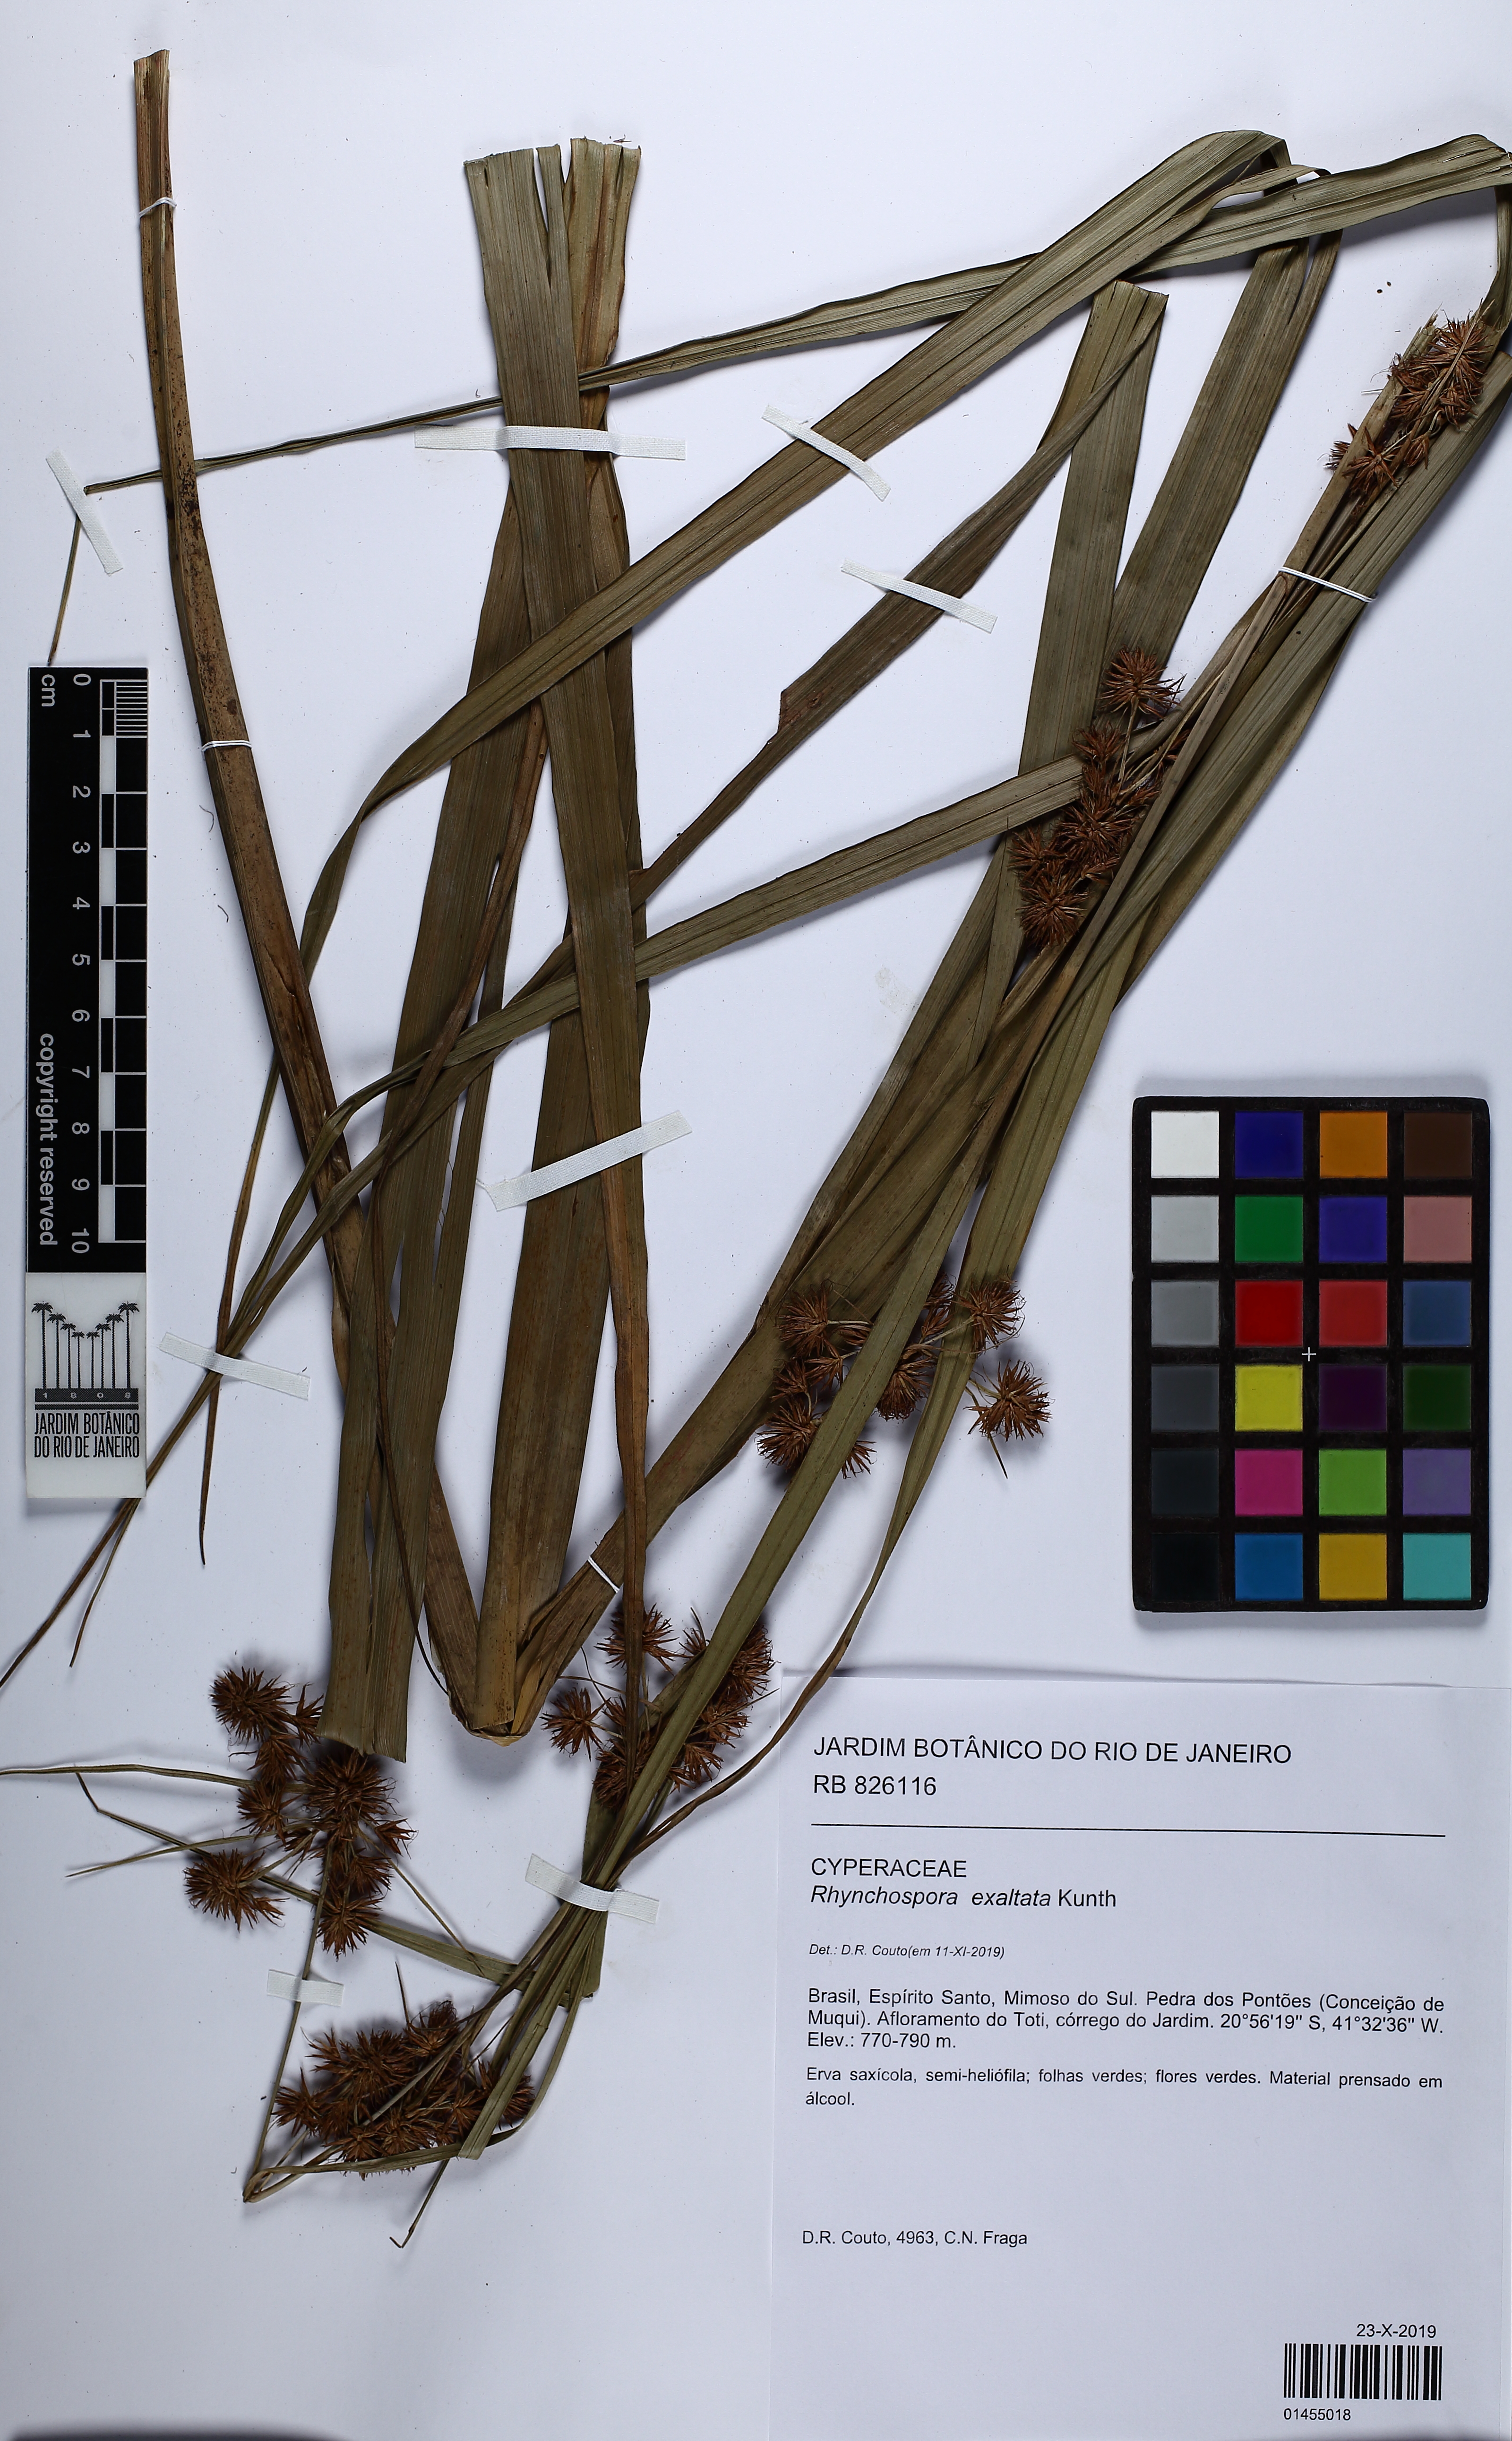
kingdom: Plantae
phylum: Tracheophyta
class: Liliopsida
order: Poales
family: Cyperaceae
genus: Rhynchospora
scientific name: Rhynchospora exaltata
